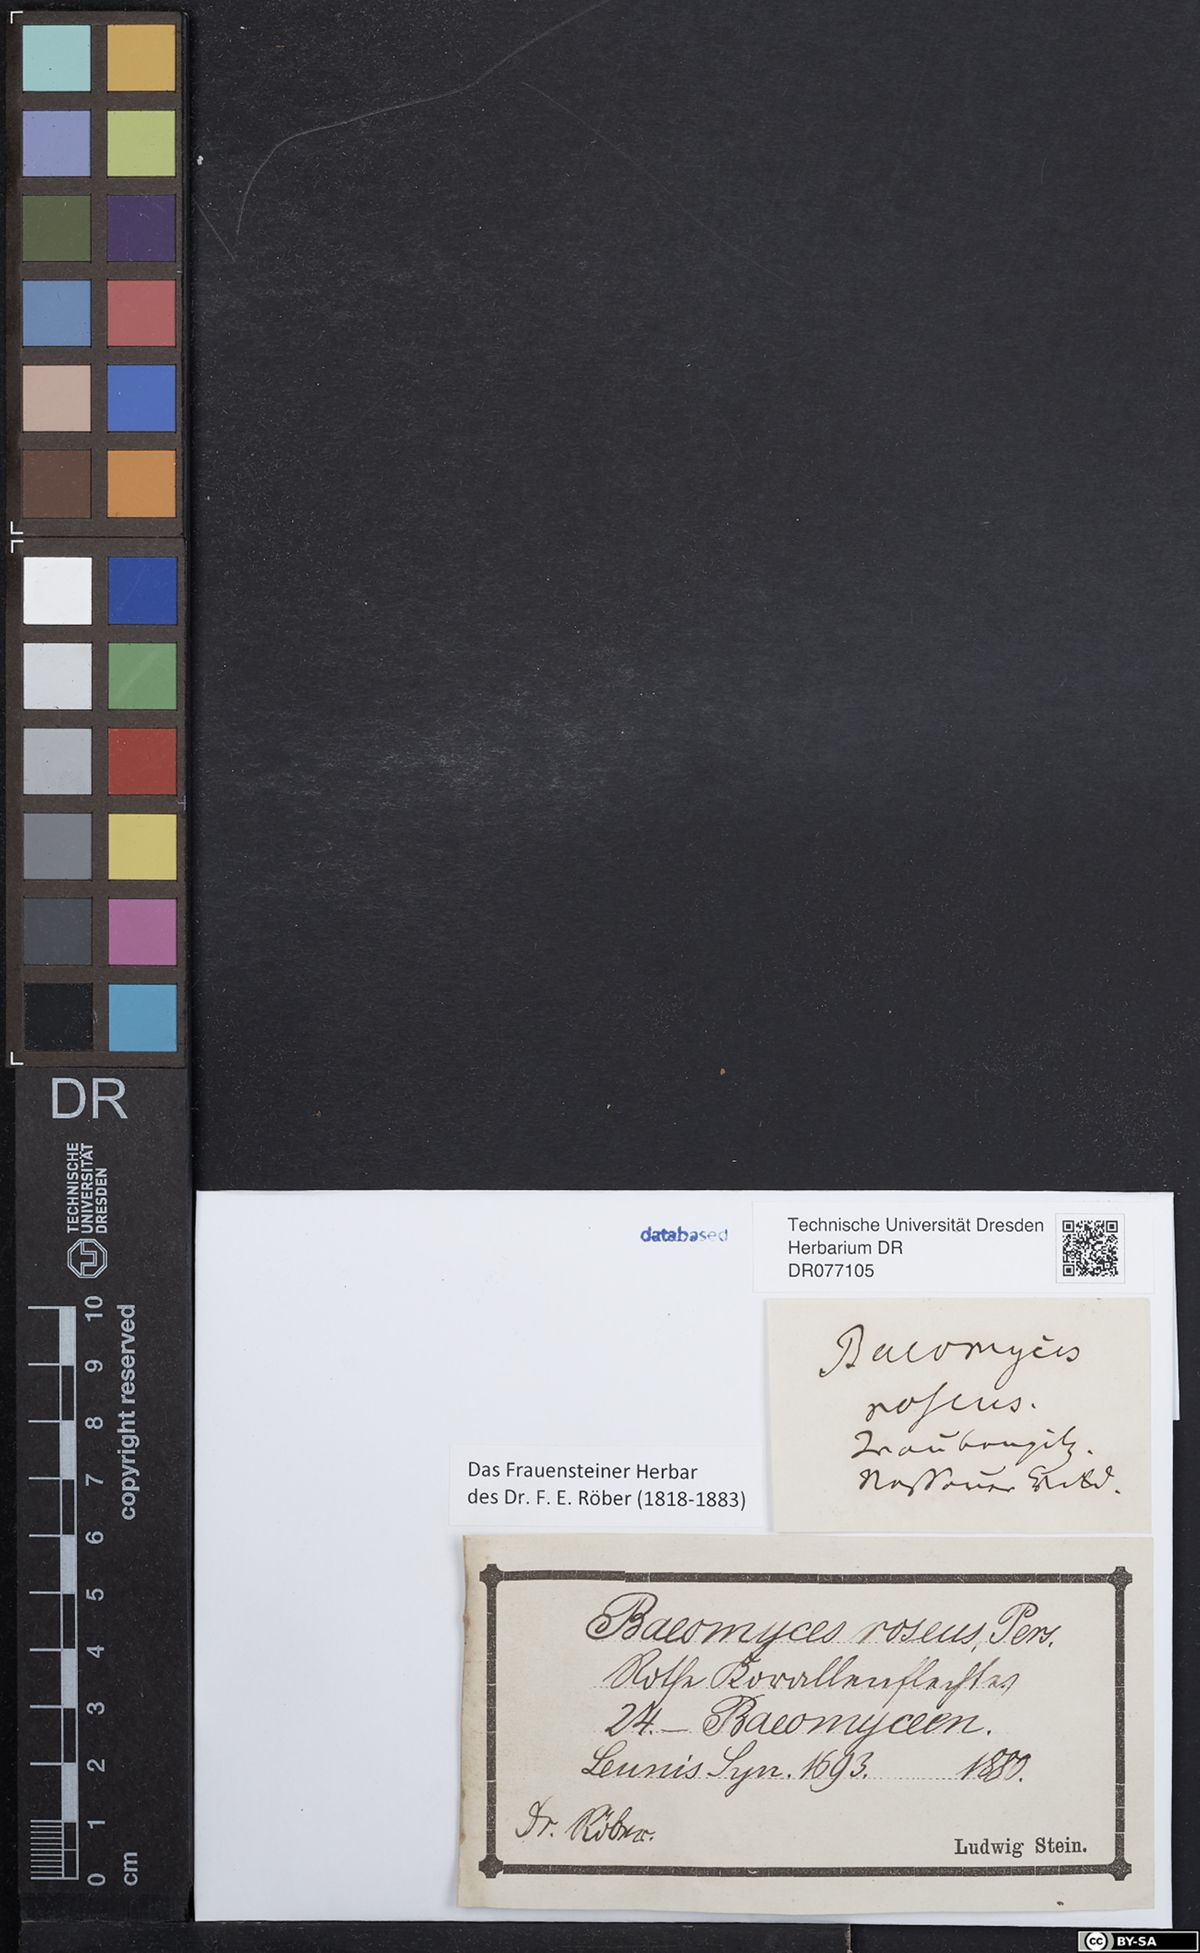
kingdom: Fungi
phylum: Ascomycota
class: Lecanoromycetes
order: Pertusariales
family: Icmadophilaceae
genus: Dibaeis
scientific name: Dibaeis baeomyces
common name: Pink earth lichen
